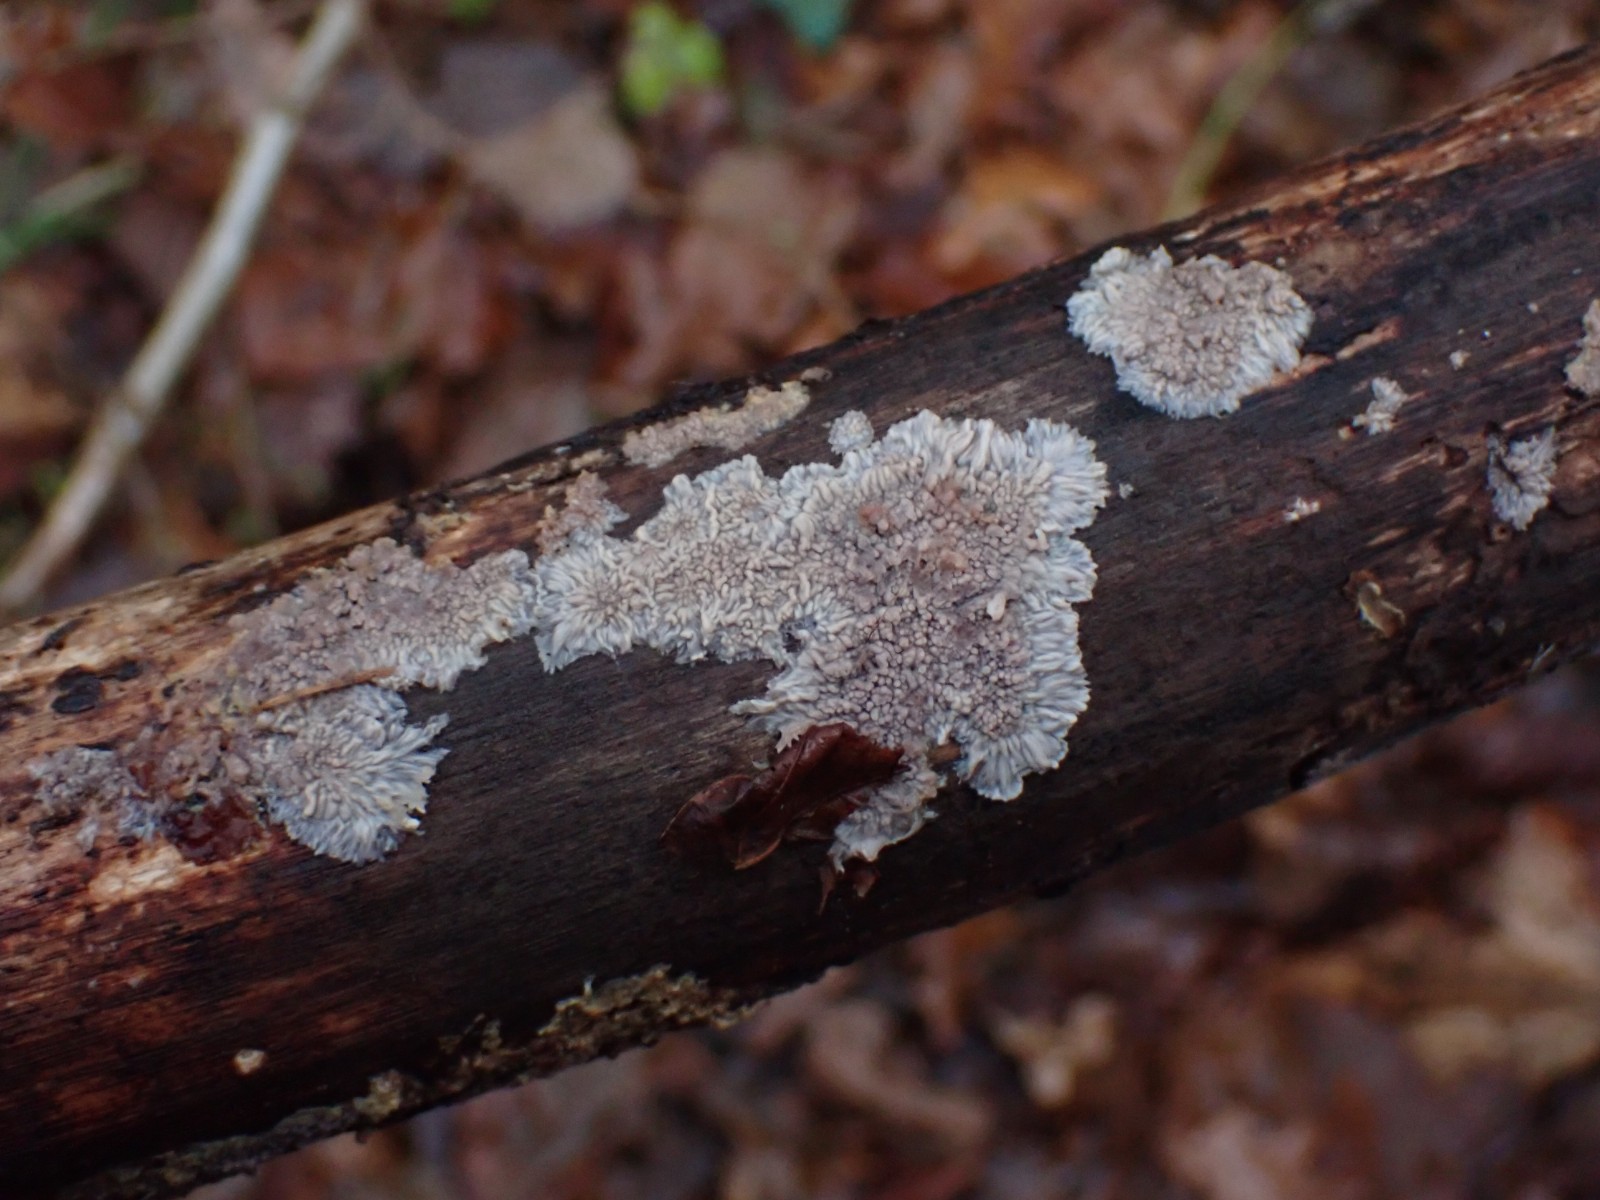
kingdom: Fungi
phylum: Basidiomycota
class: Agaricomycetes
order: Polyporales
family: Meruliaceae
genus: Phlebia
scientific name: Phlebia radiata
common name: stråle-åresvamp
